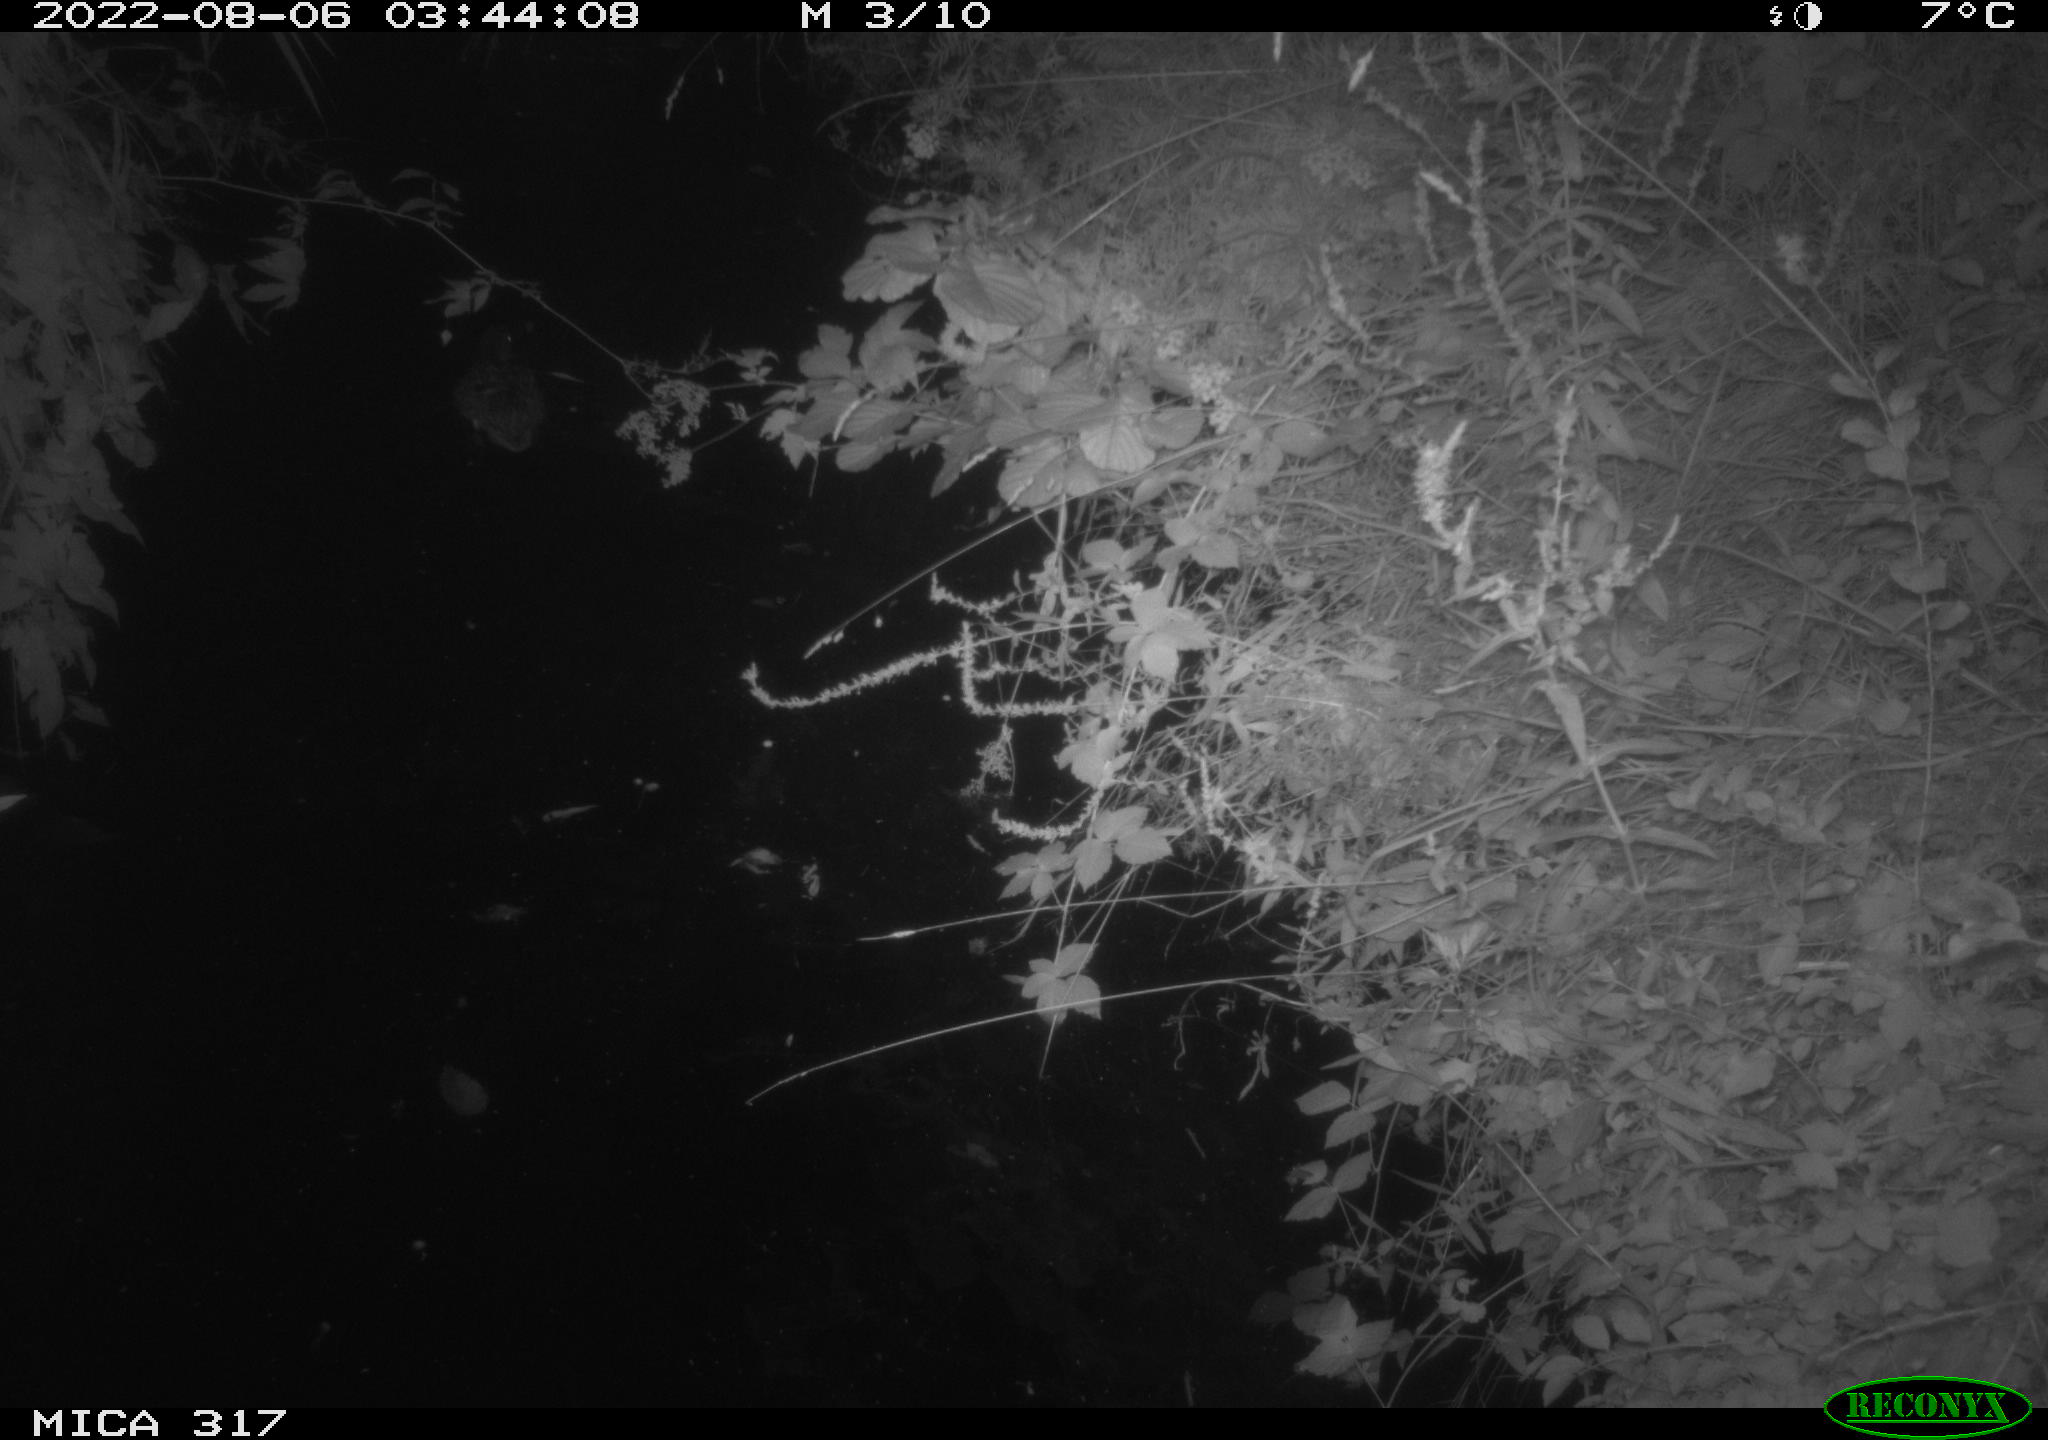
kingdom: Animalia
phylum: Chordata
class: Aves
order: Anseriformes
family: Anatidae
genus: Anas
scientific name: Anas
